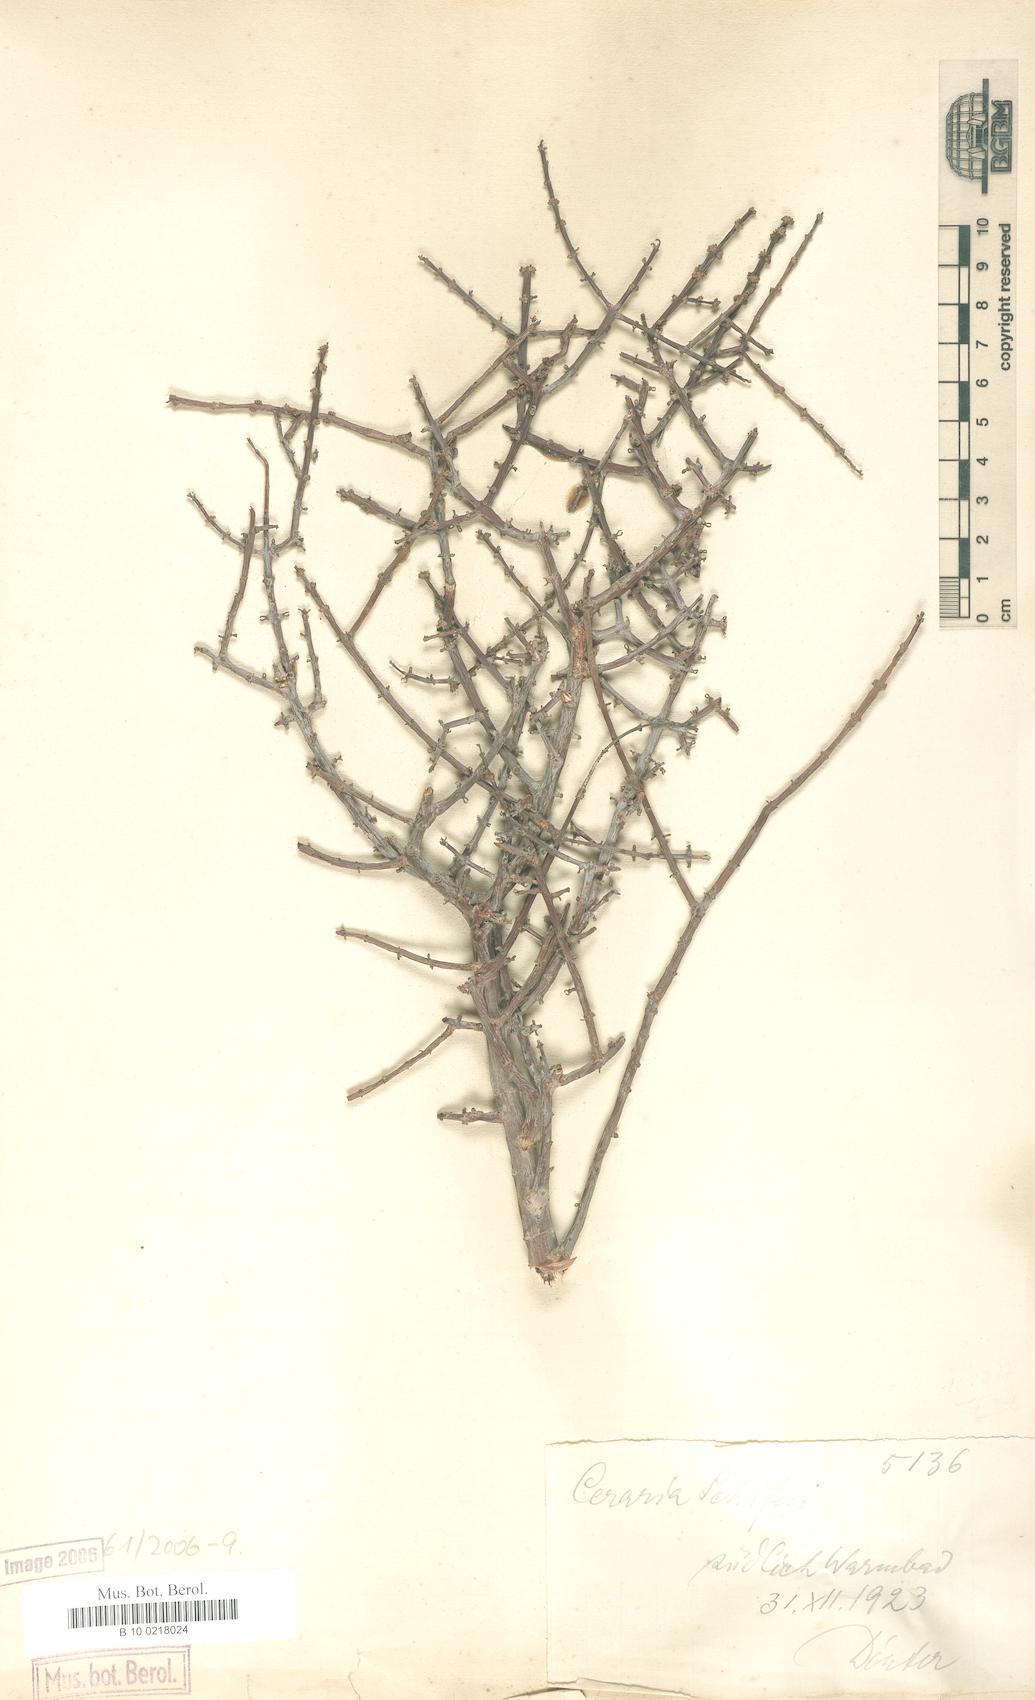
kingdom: Plantae
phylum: Tracheophyta
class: Magnoliopsida
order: Caryophyllales
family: Didiereaceae
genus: Portulacaria
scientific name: Portulacaria fruticulosa
